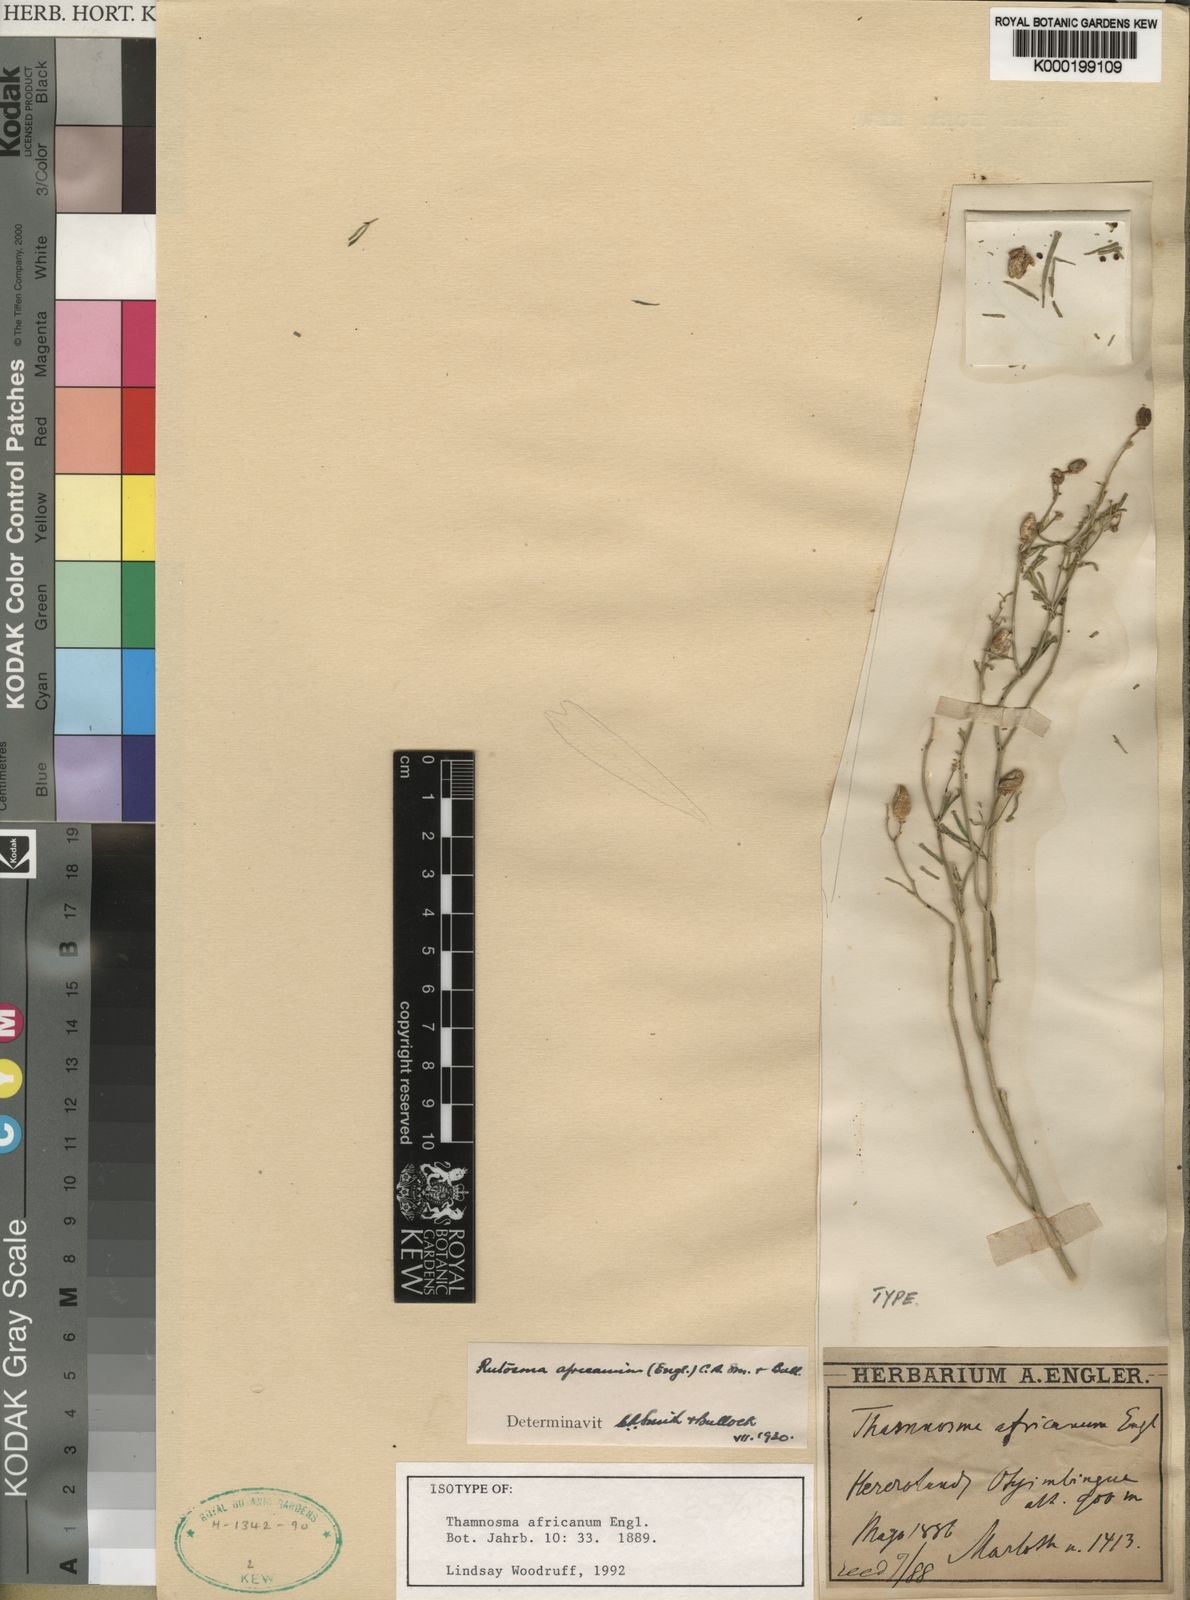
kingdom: Plantae
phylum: Tracheophyta
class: Magnoliopsida
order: Sapindales
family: Rutaceae
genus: Thamnosma
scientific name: Thamnosma
